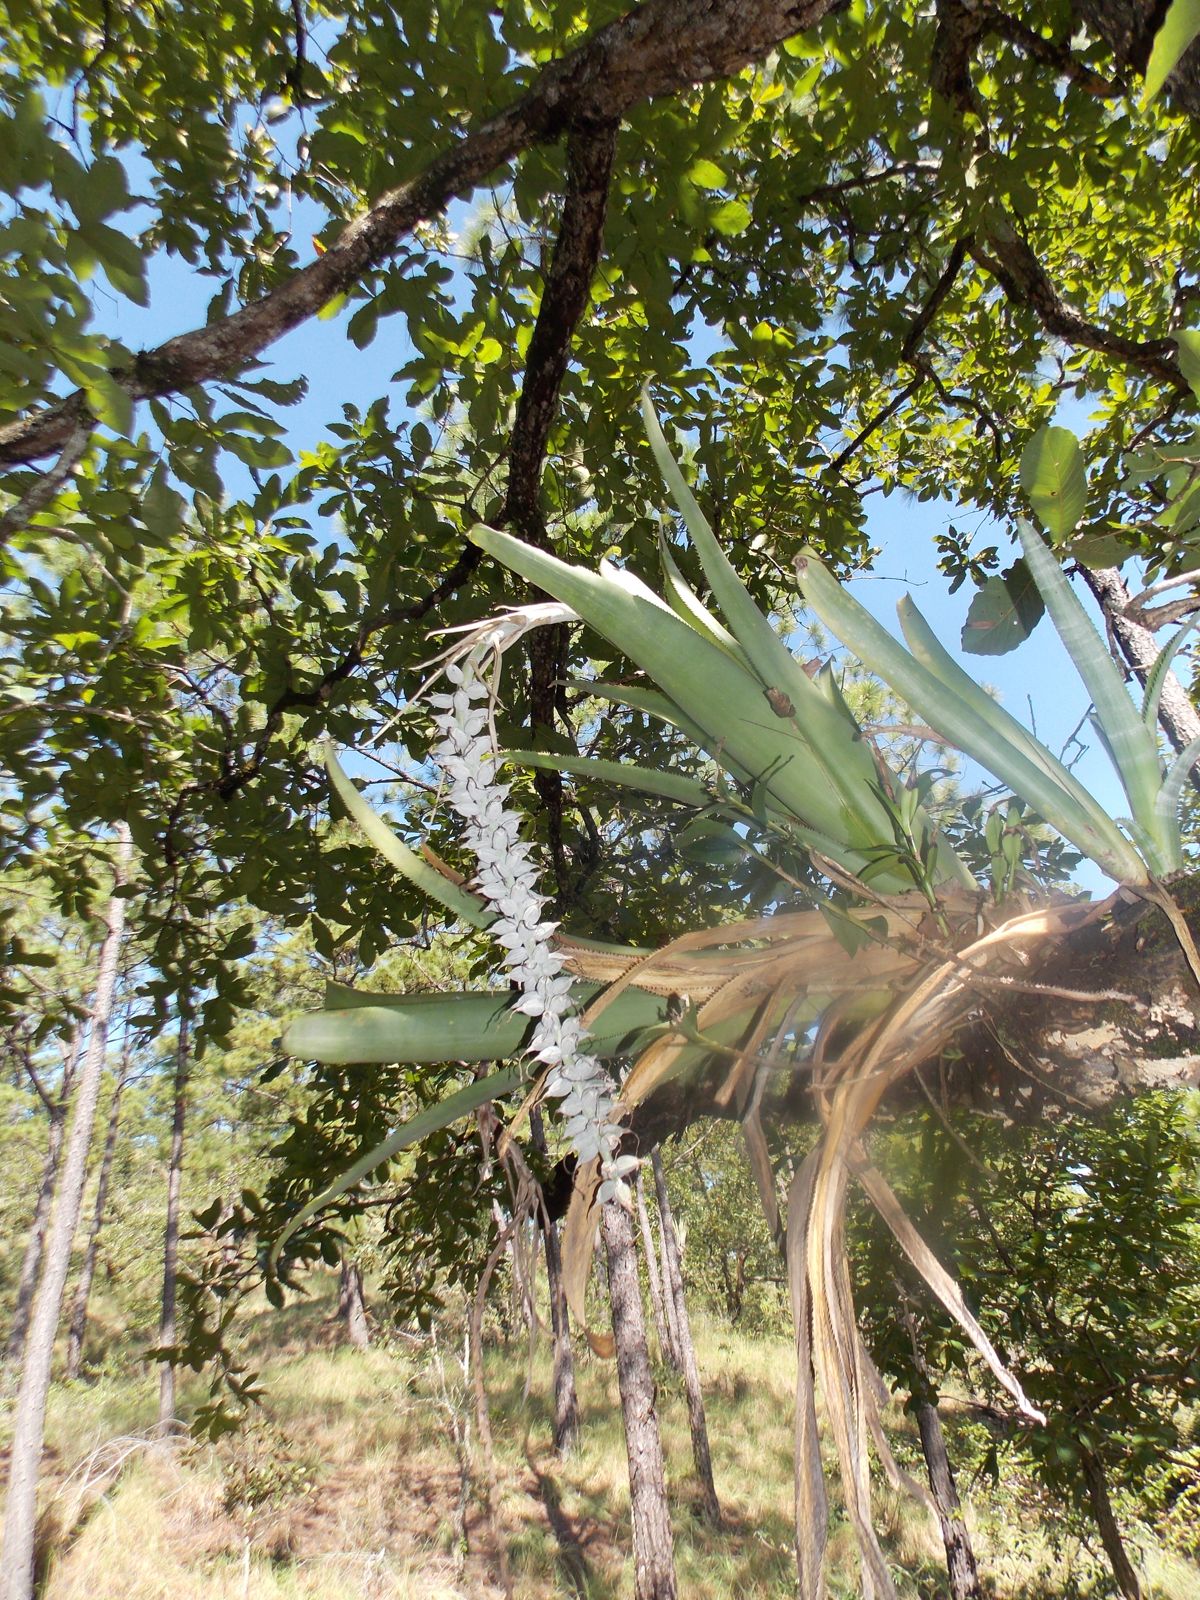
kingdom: Plantae
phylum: Tracheophyta
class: Liliopsida
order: Poales
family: Bromeliaceae
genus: Aechmea
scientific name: Aechmea
